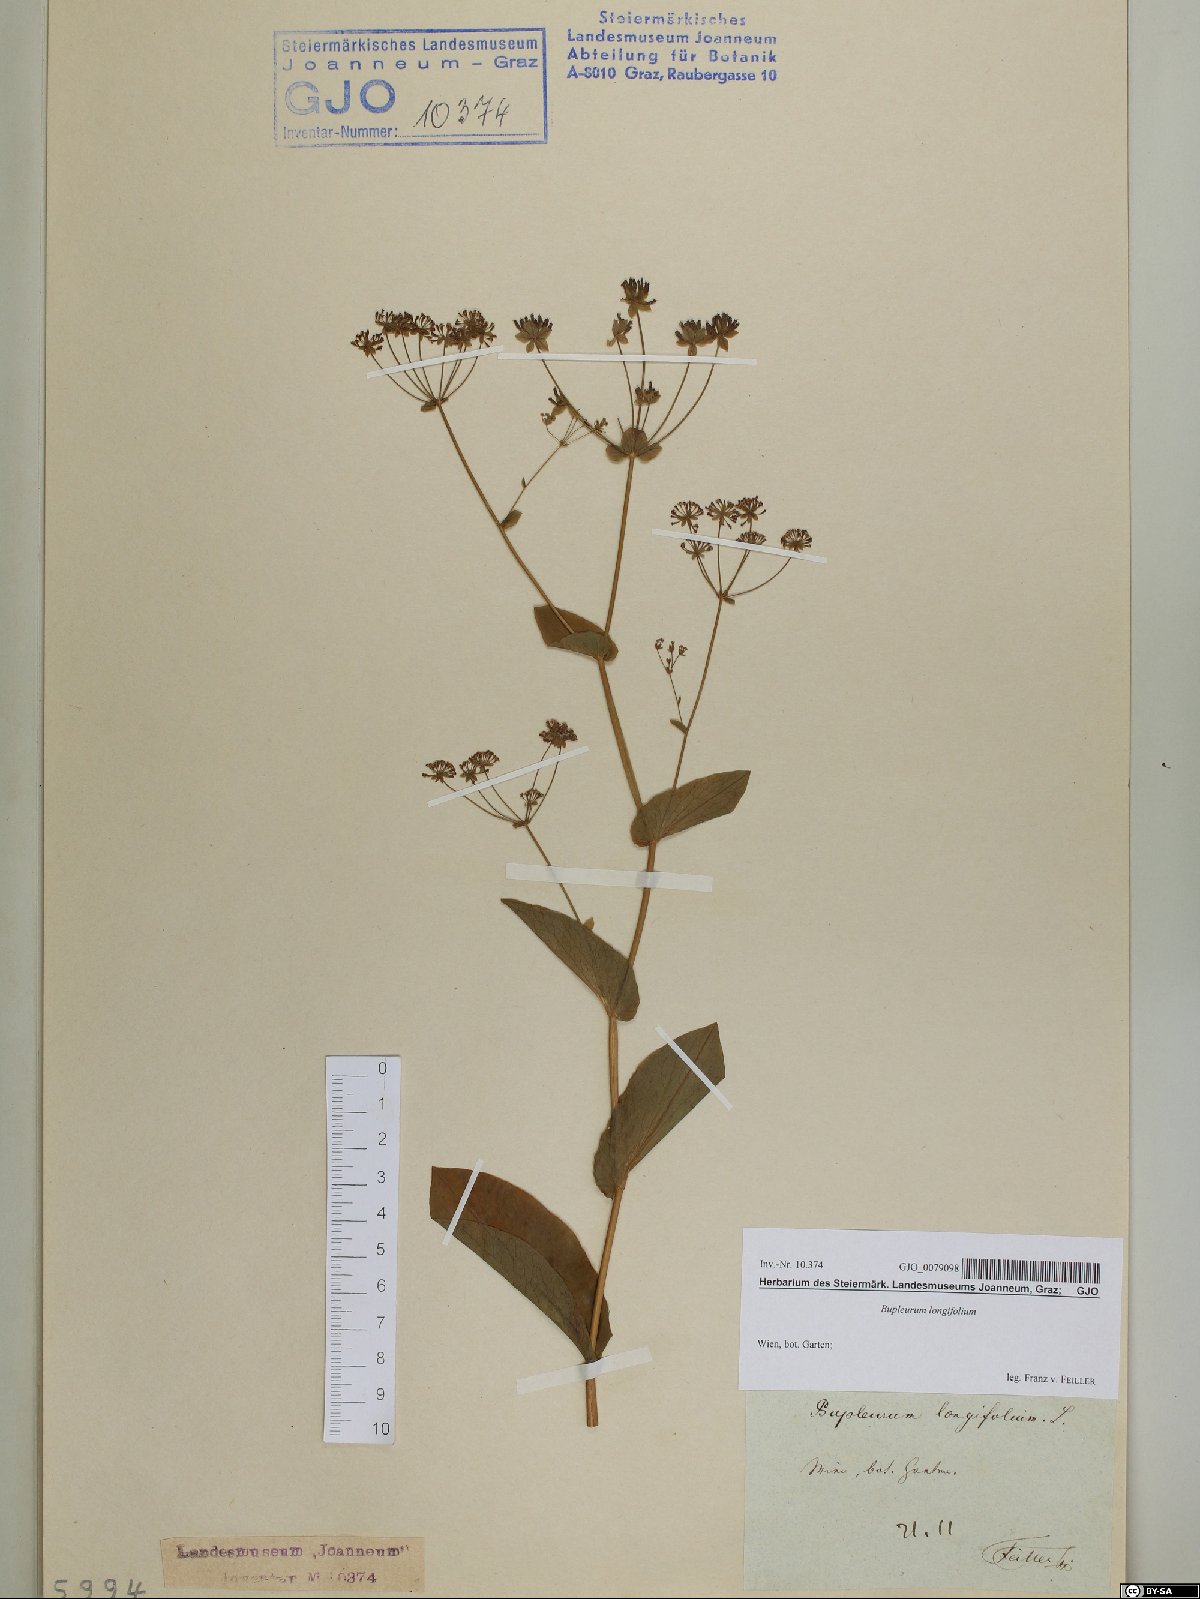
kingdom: Plantae
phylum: Tracheophyta
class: Magnoliopsida
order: Apiales
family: Apiaceae
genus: Bupleurum
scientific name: Bupleurum longifolium
